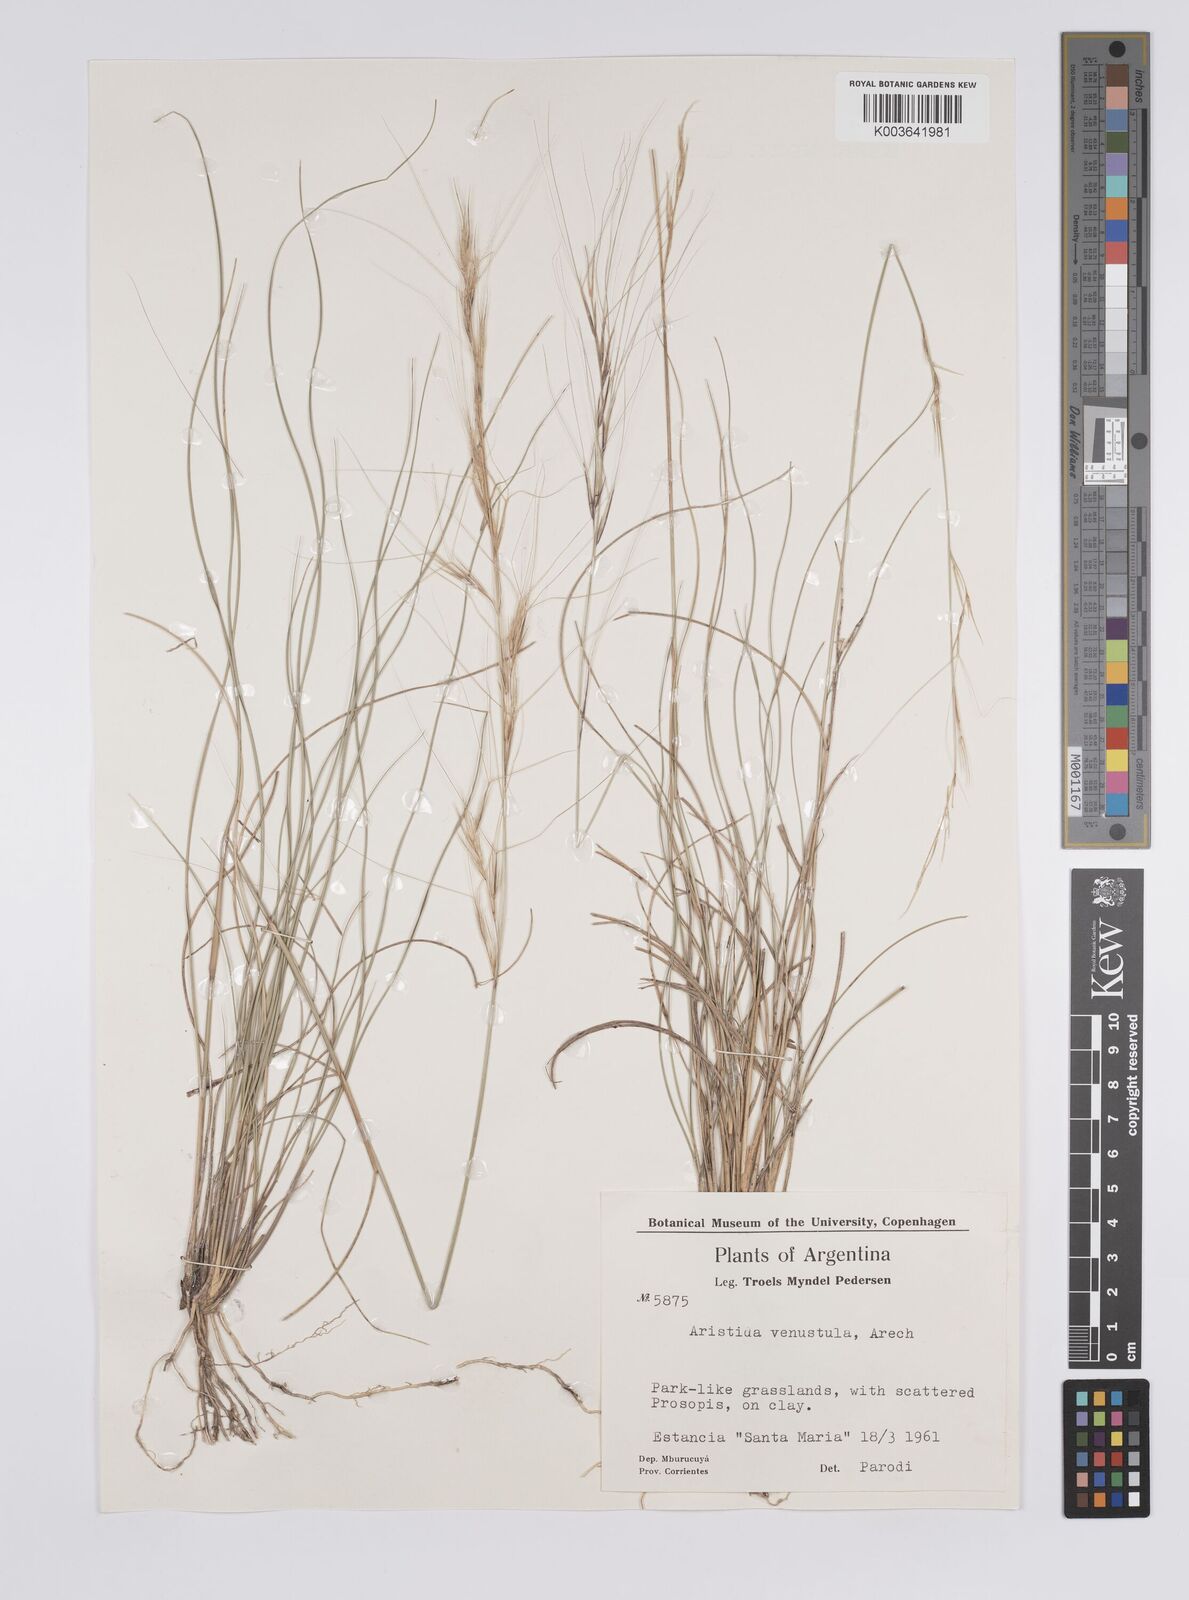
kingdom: Plantae
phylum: Tracheophyta
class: Liliopsida
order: Poales
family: Poaceae
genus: Aristida
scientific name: Aristida venustula
